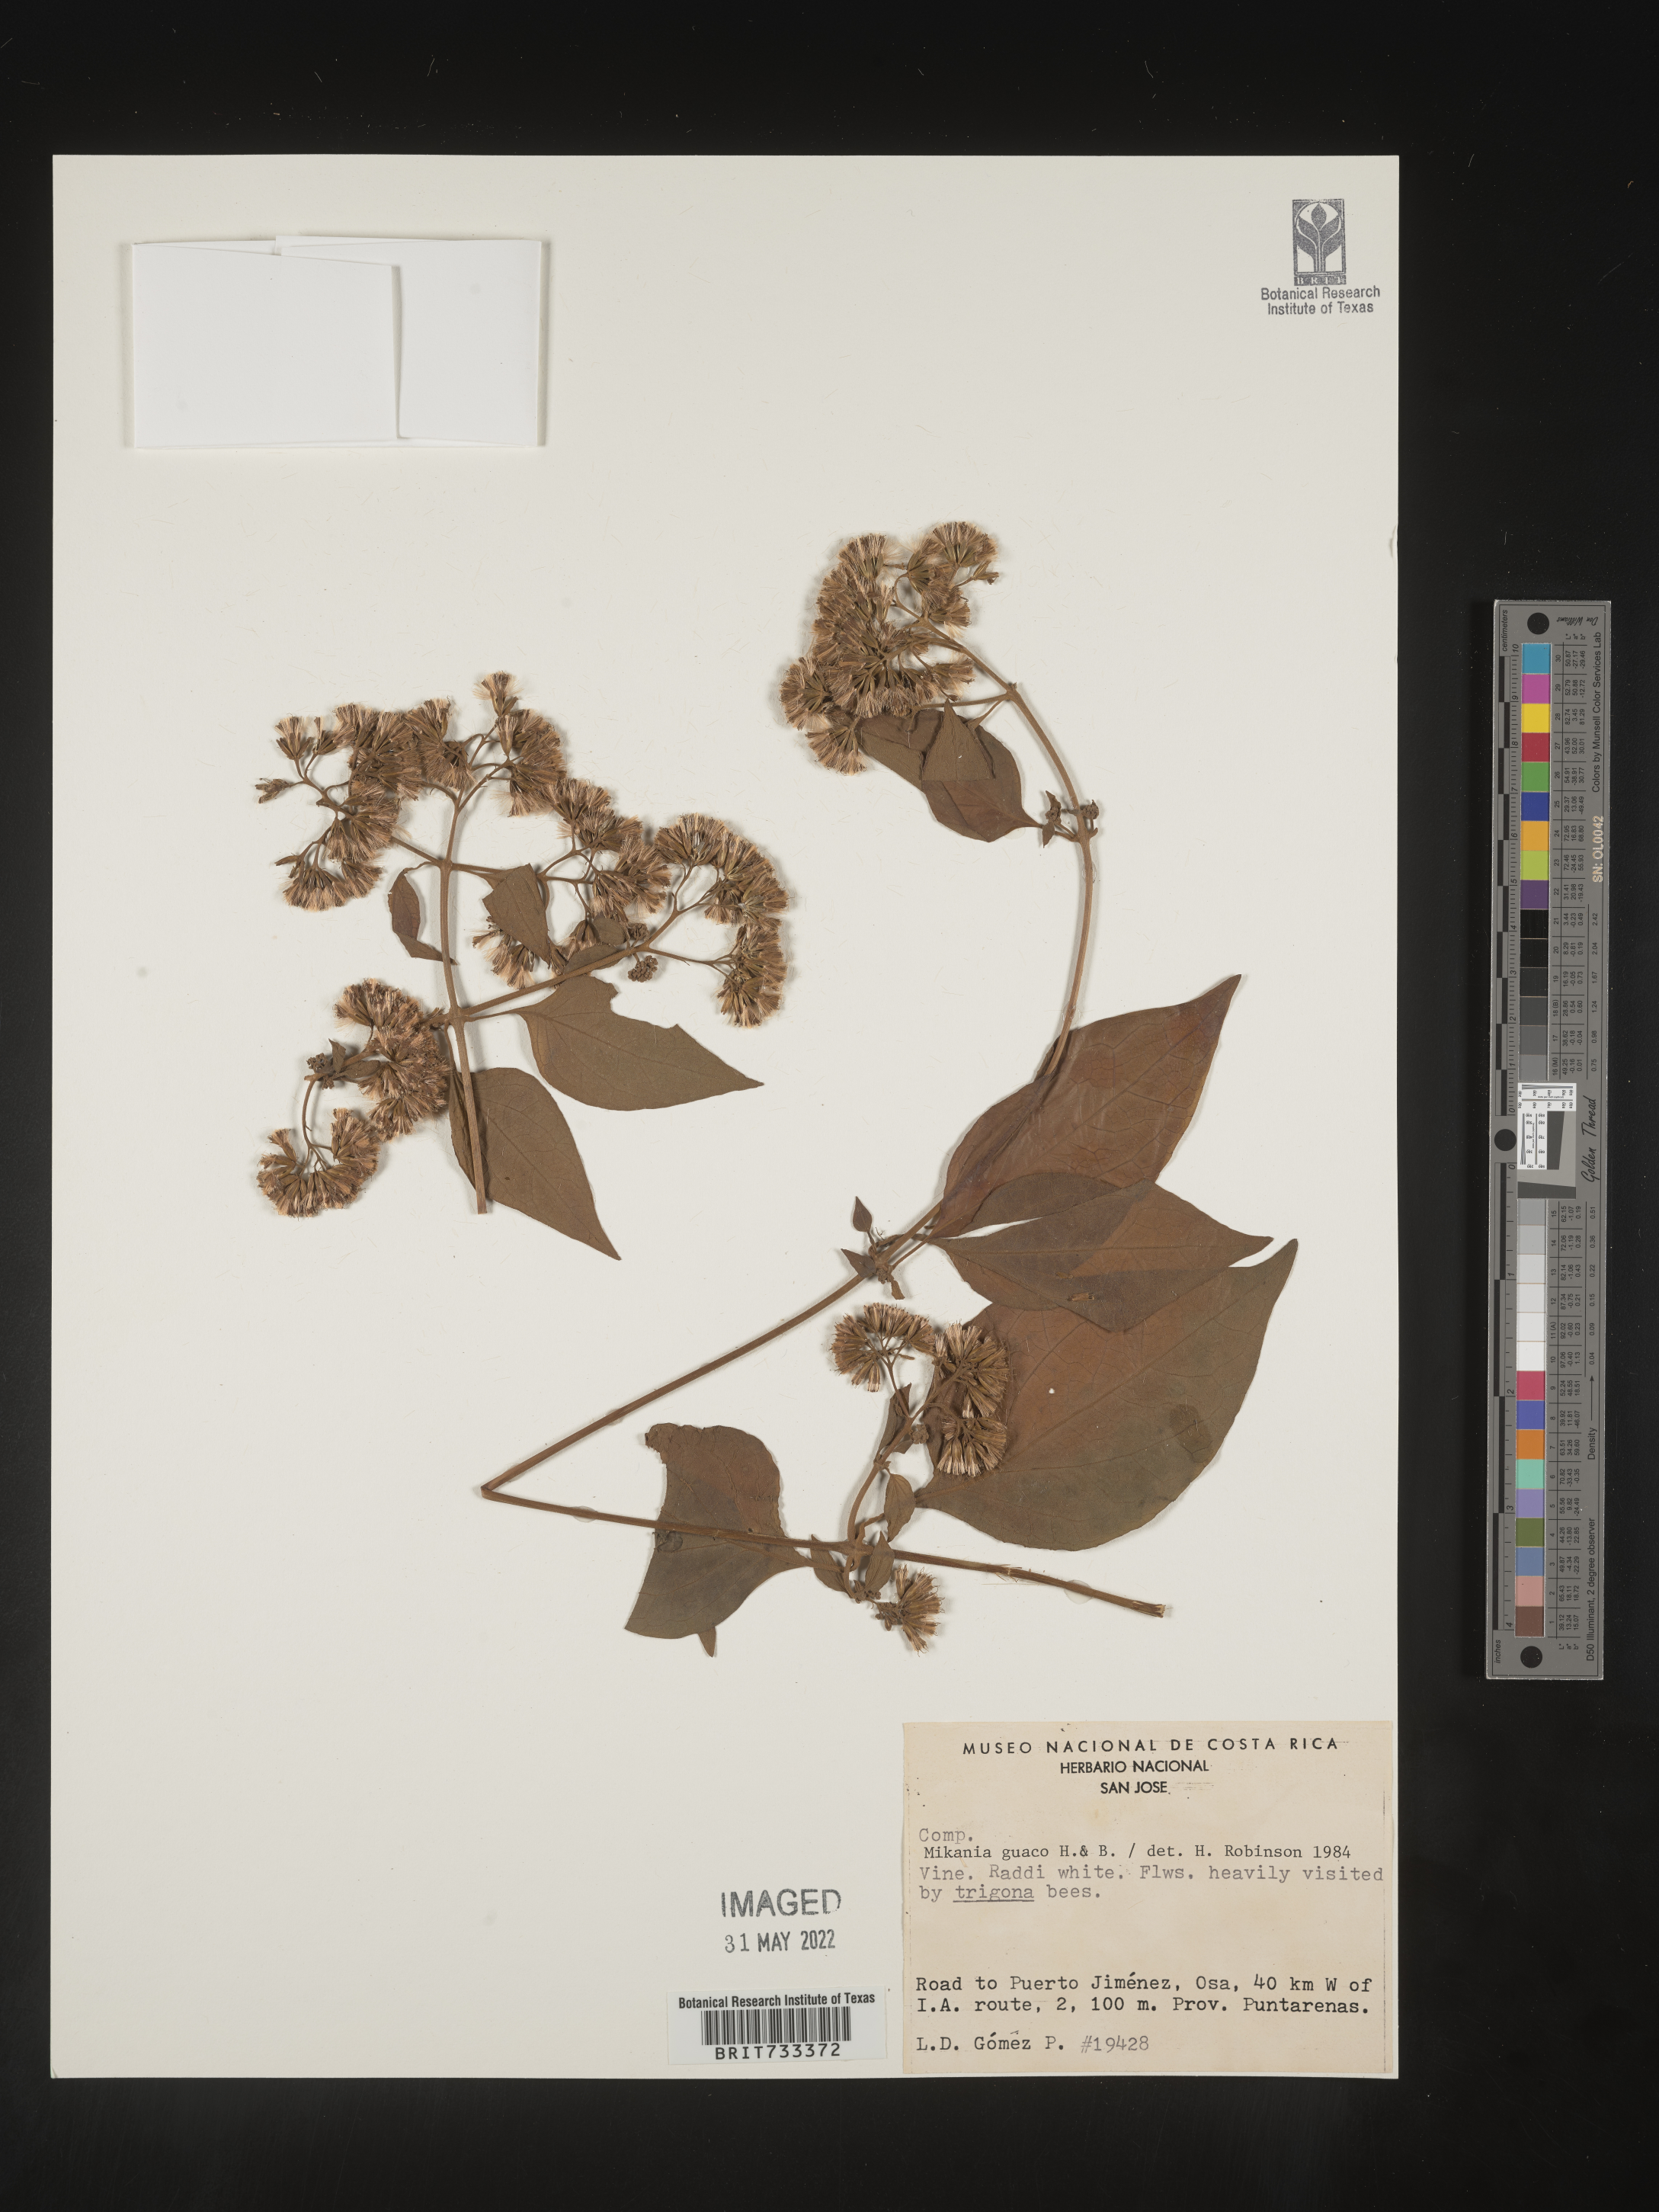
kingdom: Plantae
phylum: Tracheophyta
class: Magnoliopsida
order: Asterales
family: Asteraceae
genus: Mikania
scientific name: Mikania
